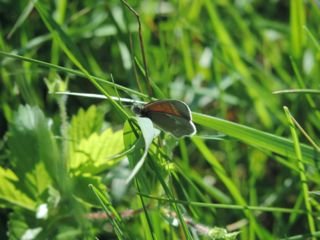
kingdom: Animalia
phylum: Arthropoda
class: Insecta
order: Lepidoptera
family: Nymphalidae
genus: Coenonympha
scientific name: Coenonympha tullia
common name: Large Heath
